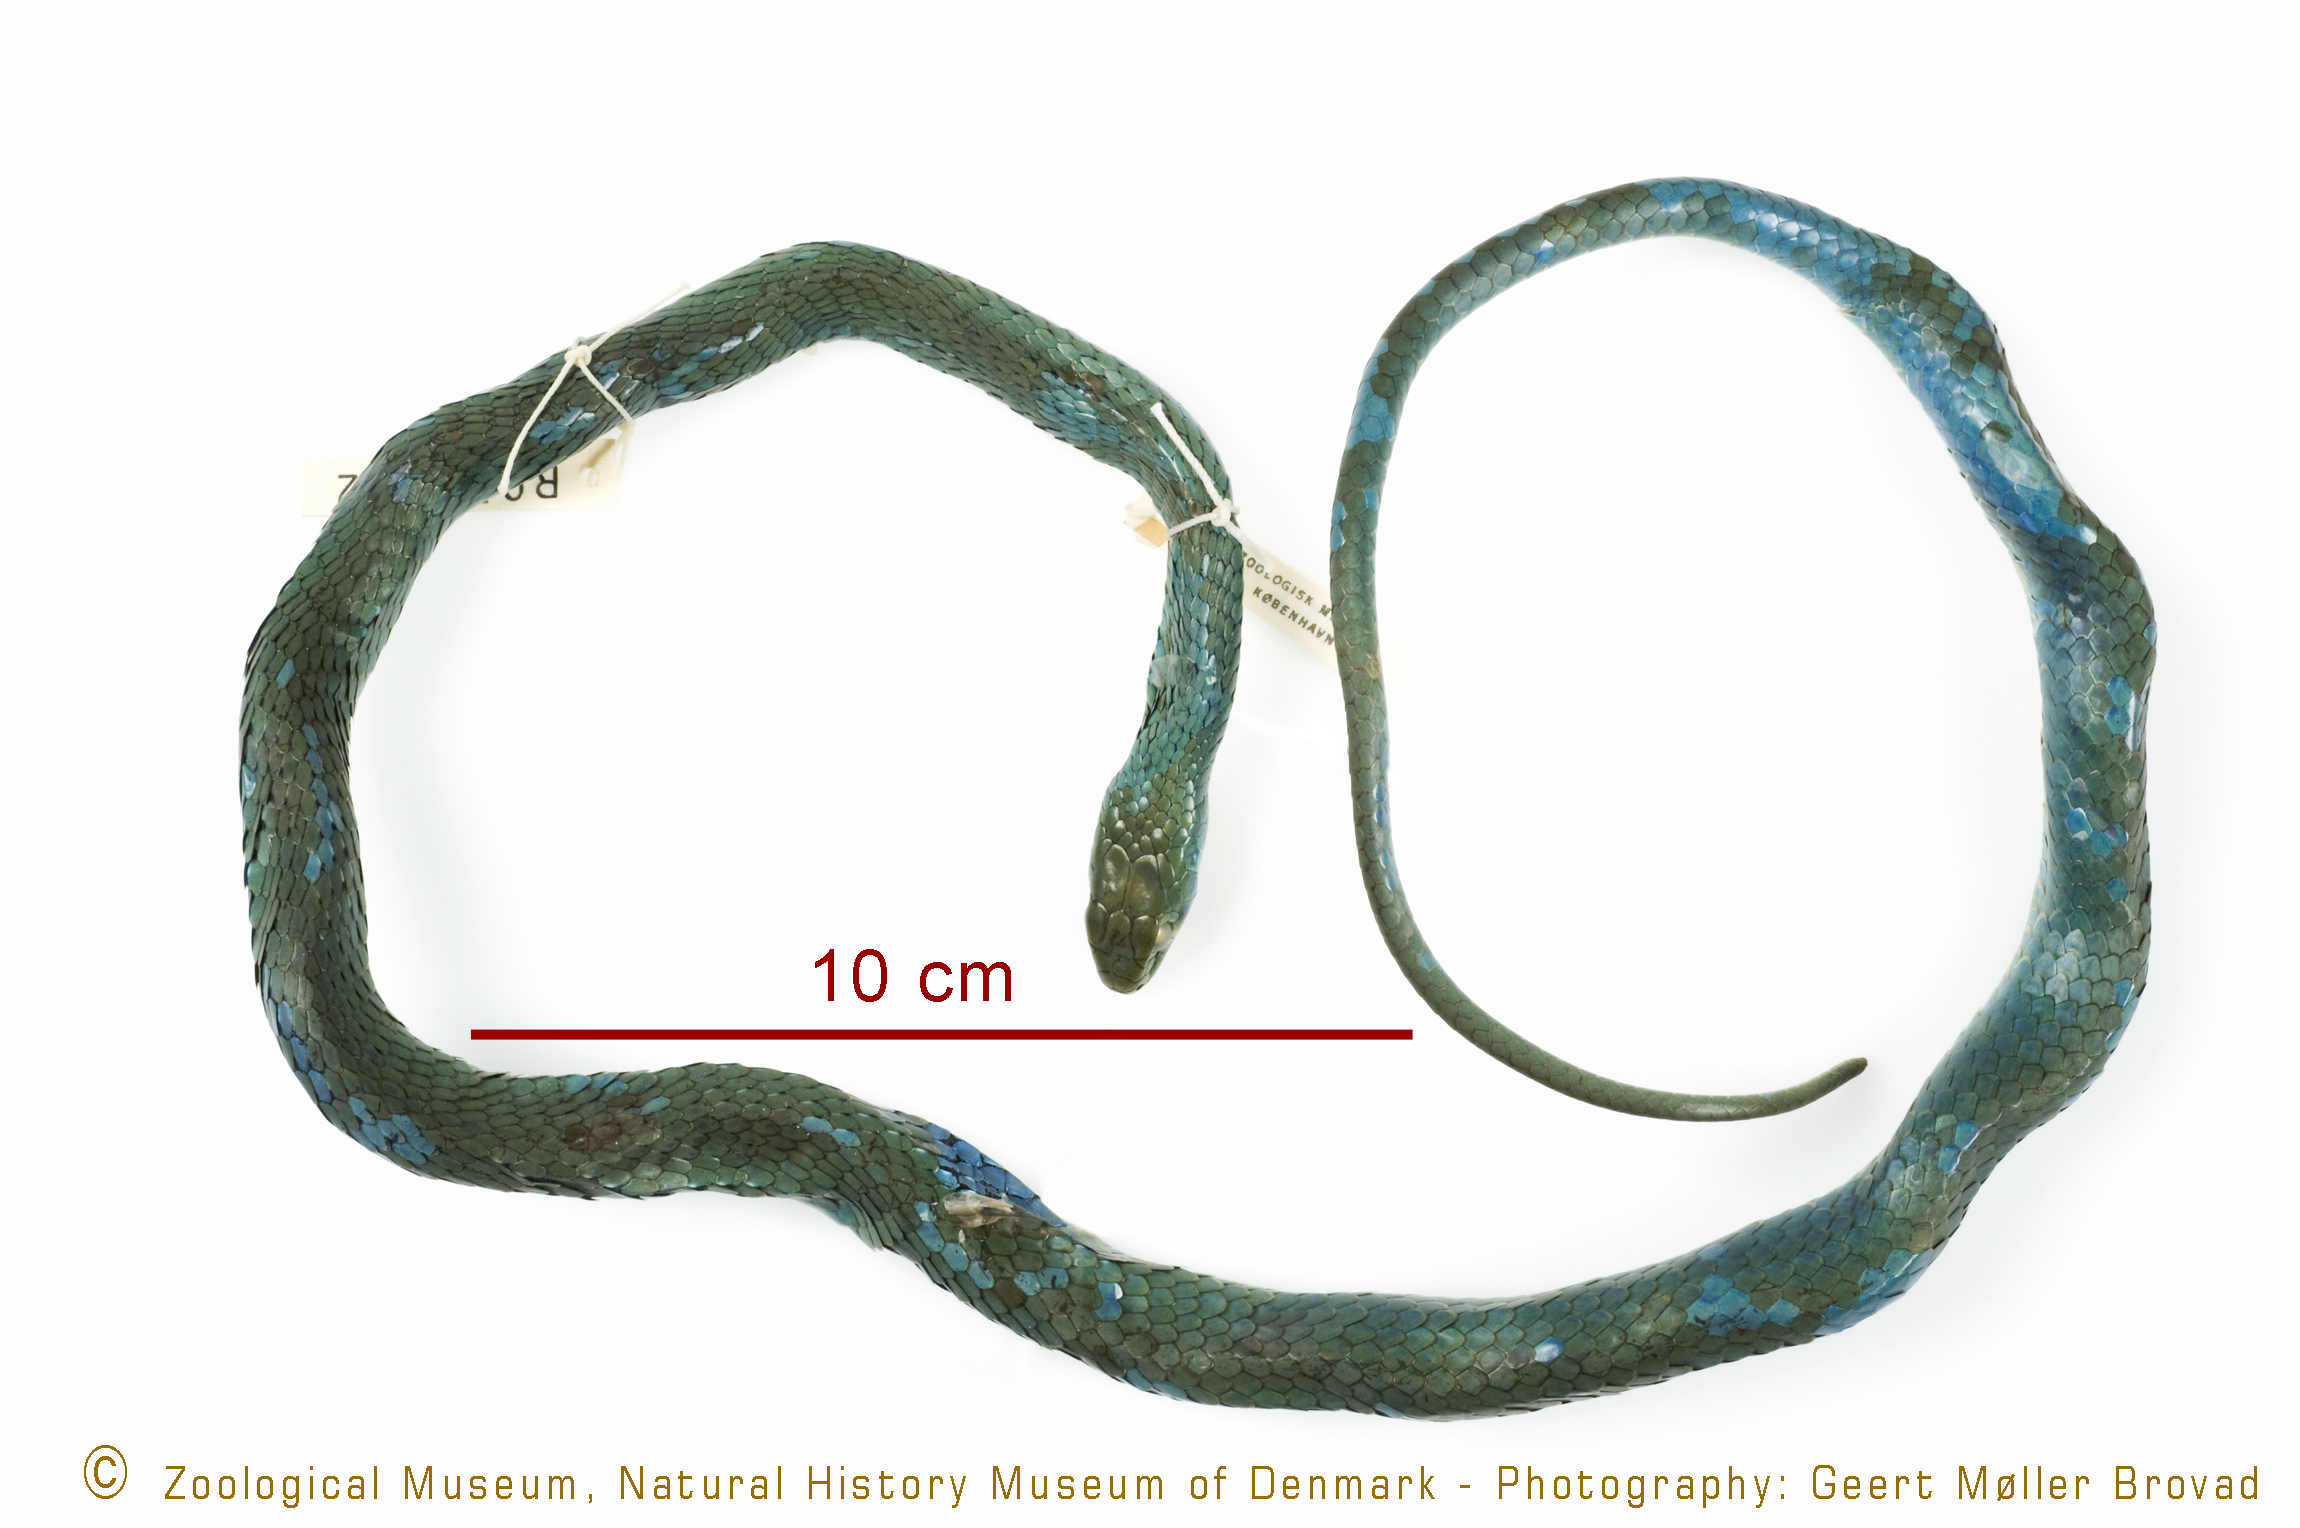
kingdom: Animalia
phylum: Chordata
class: Squamata
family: Colubridae
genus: Philothamnus
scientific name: Philothamnus battersbyi
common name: Battersby's green snake
